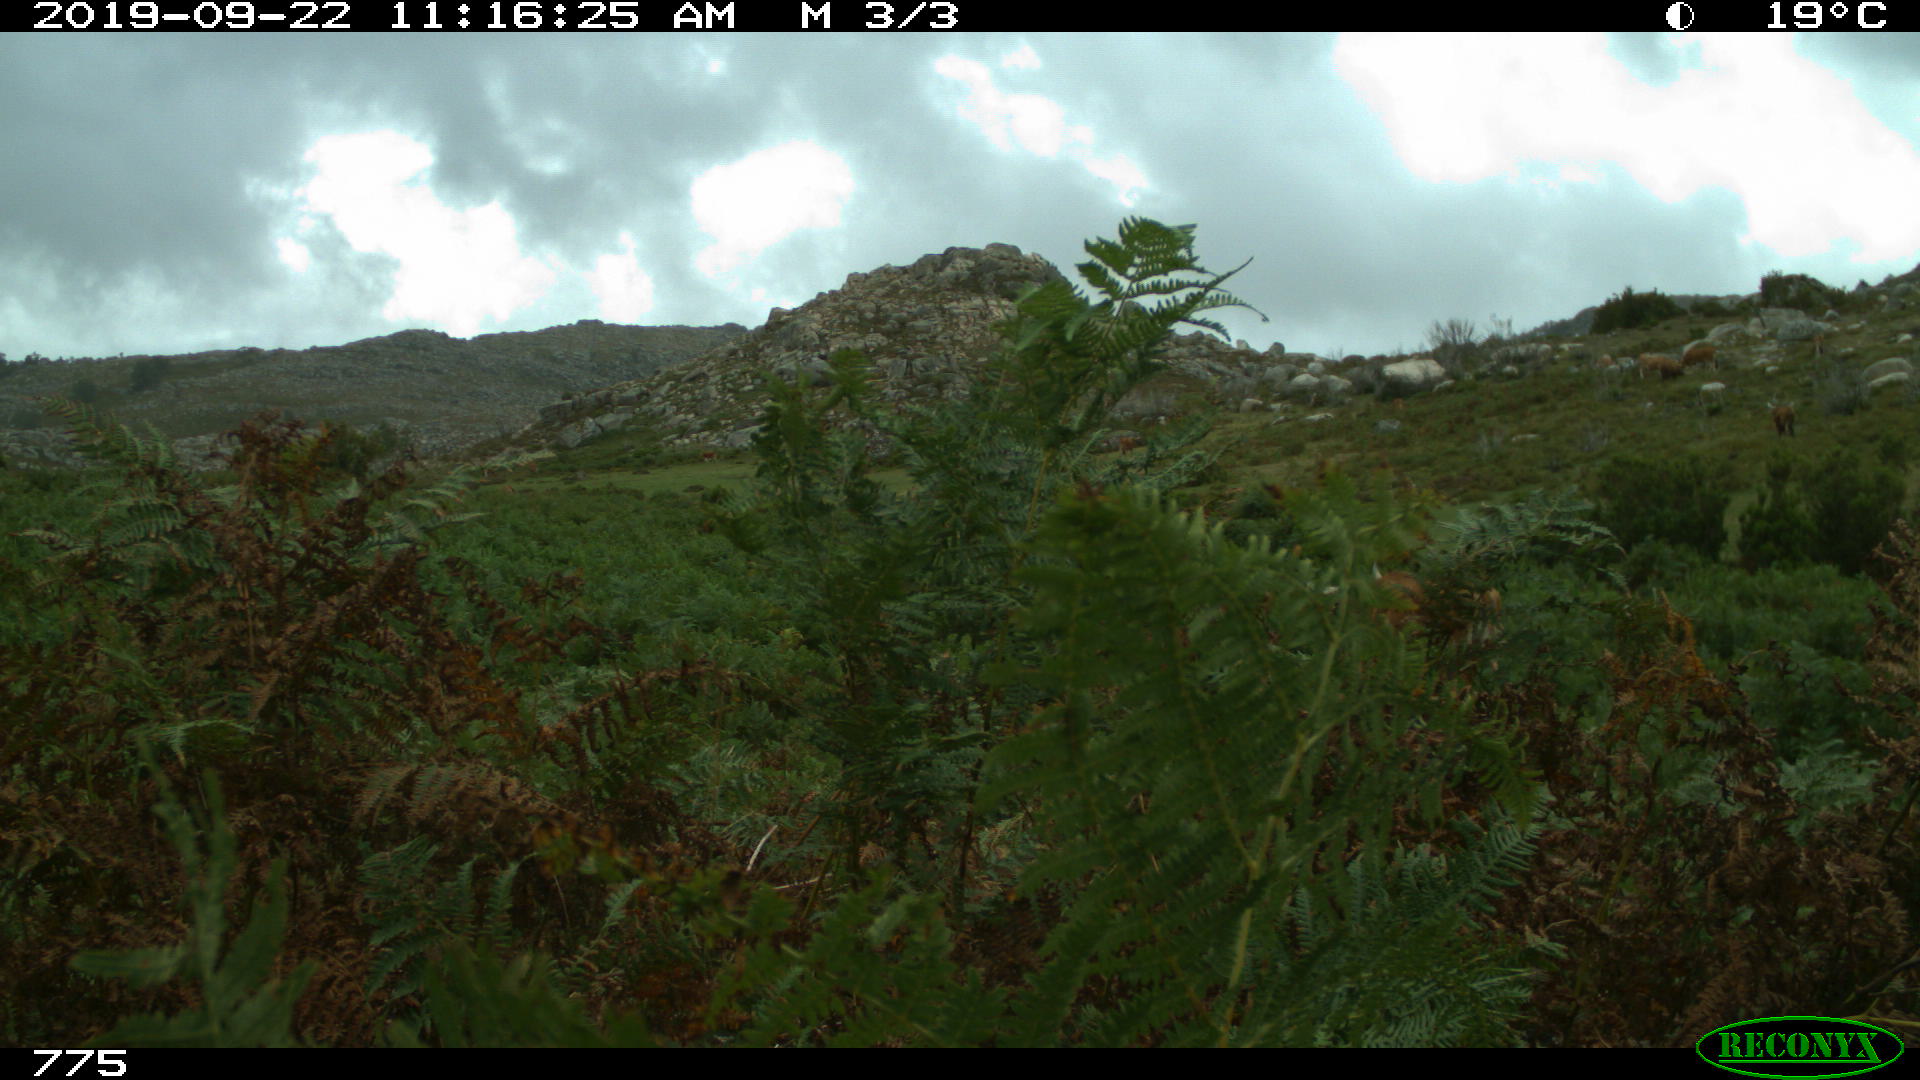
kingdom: Animalia
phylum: Chordata
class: Mammalia
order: Artiodactyla
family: Bovidae
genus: Bos
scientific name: Bos taurus
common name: Domesticated cattle
